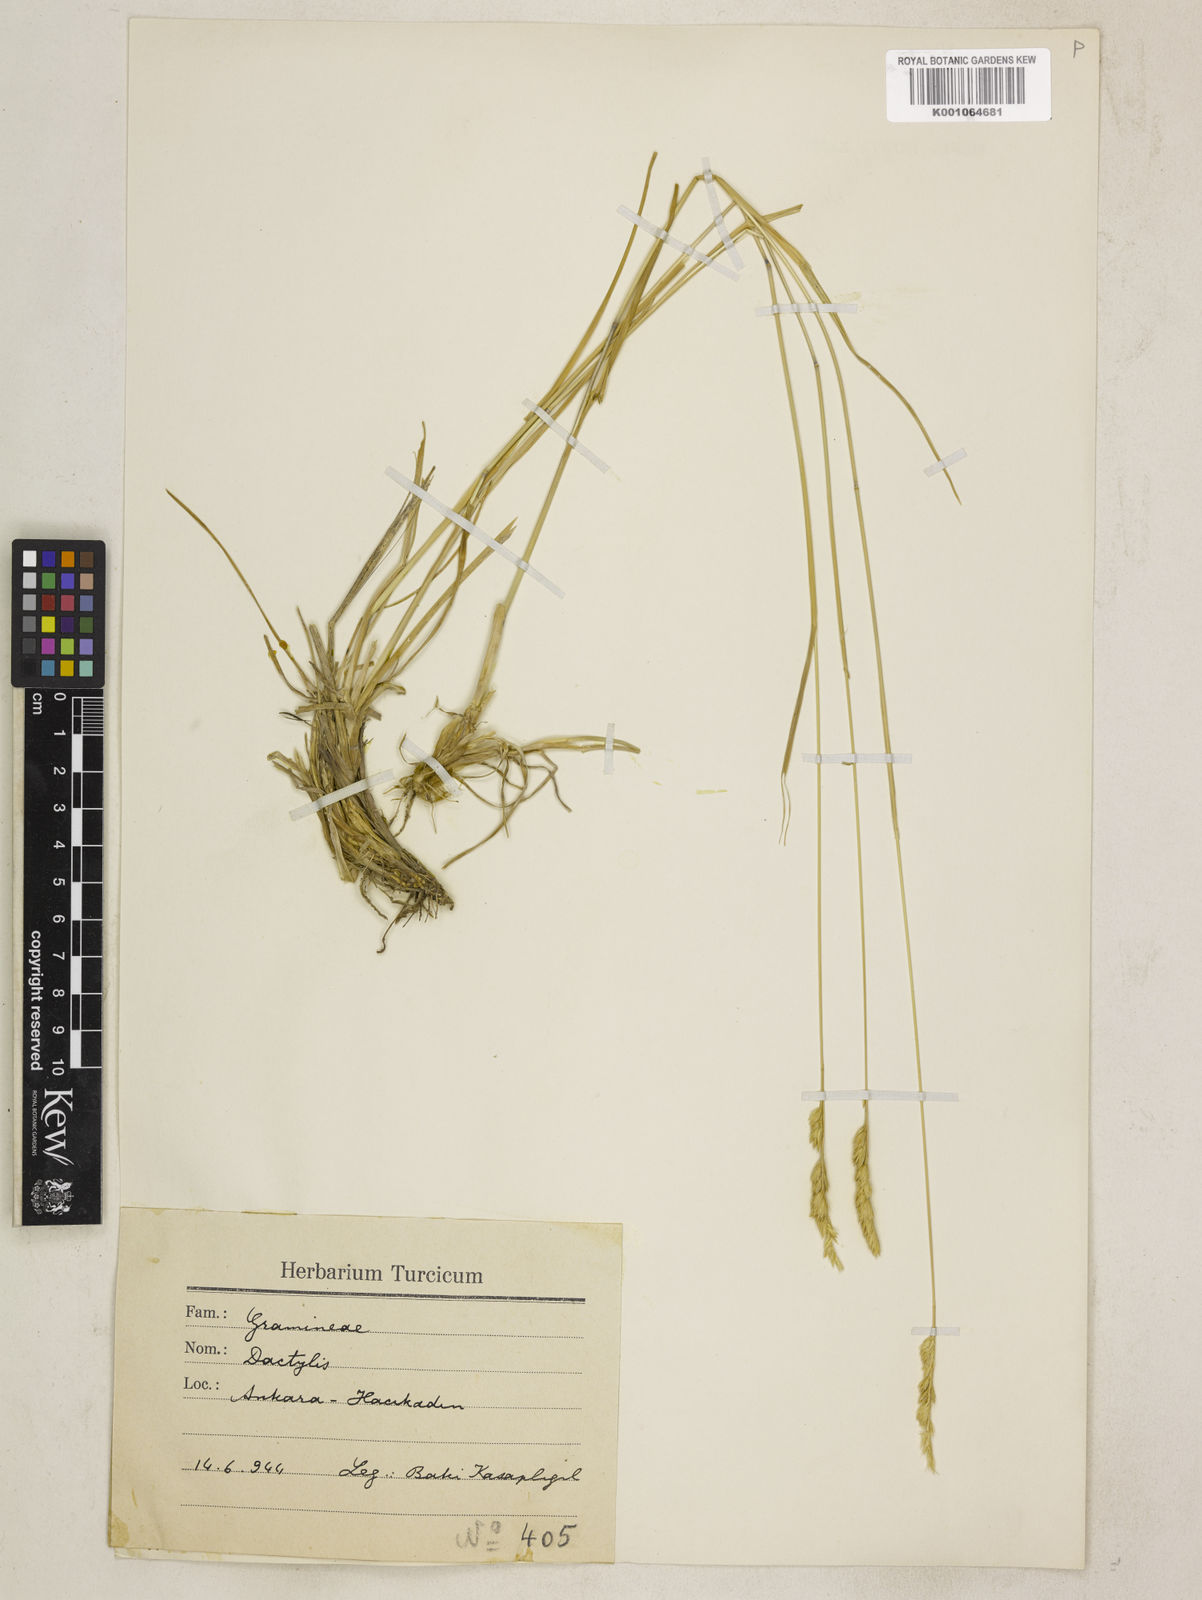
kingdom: Plantae
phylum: Tracheophyta
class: Liliopsida
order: Poales
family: Poaceae
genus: Dactylis
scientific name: Dactylis glomerata
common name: Orchardgrass
